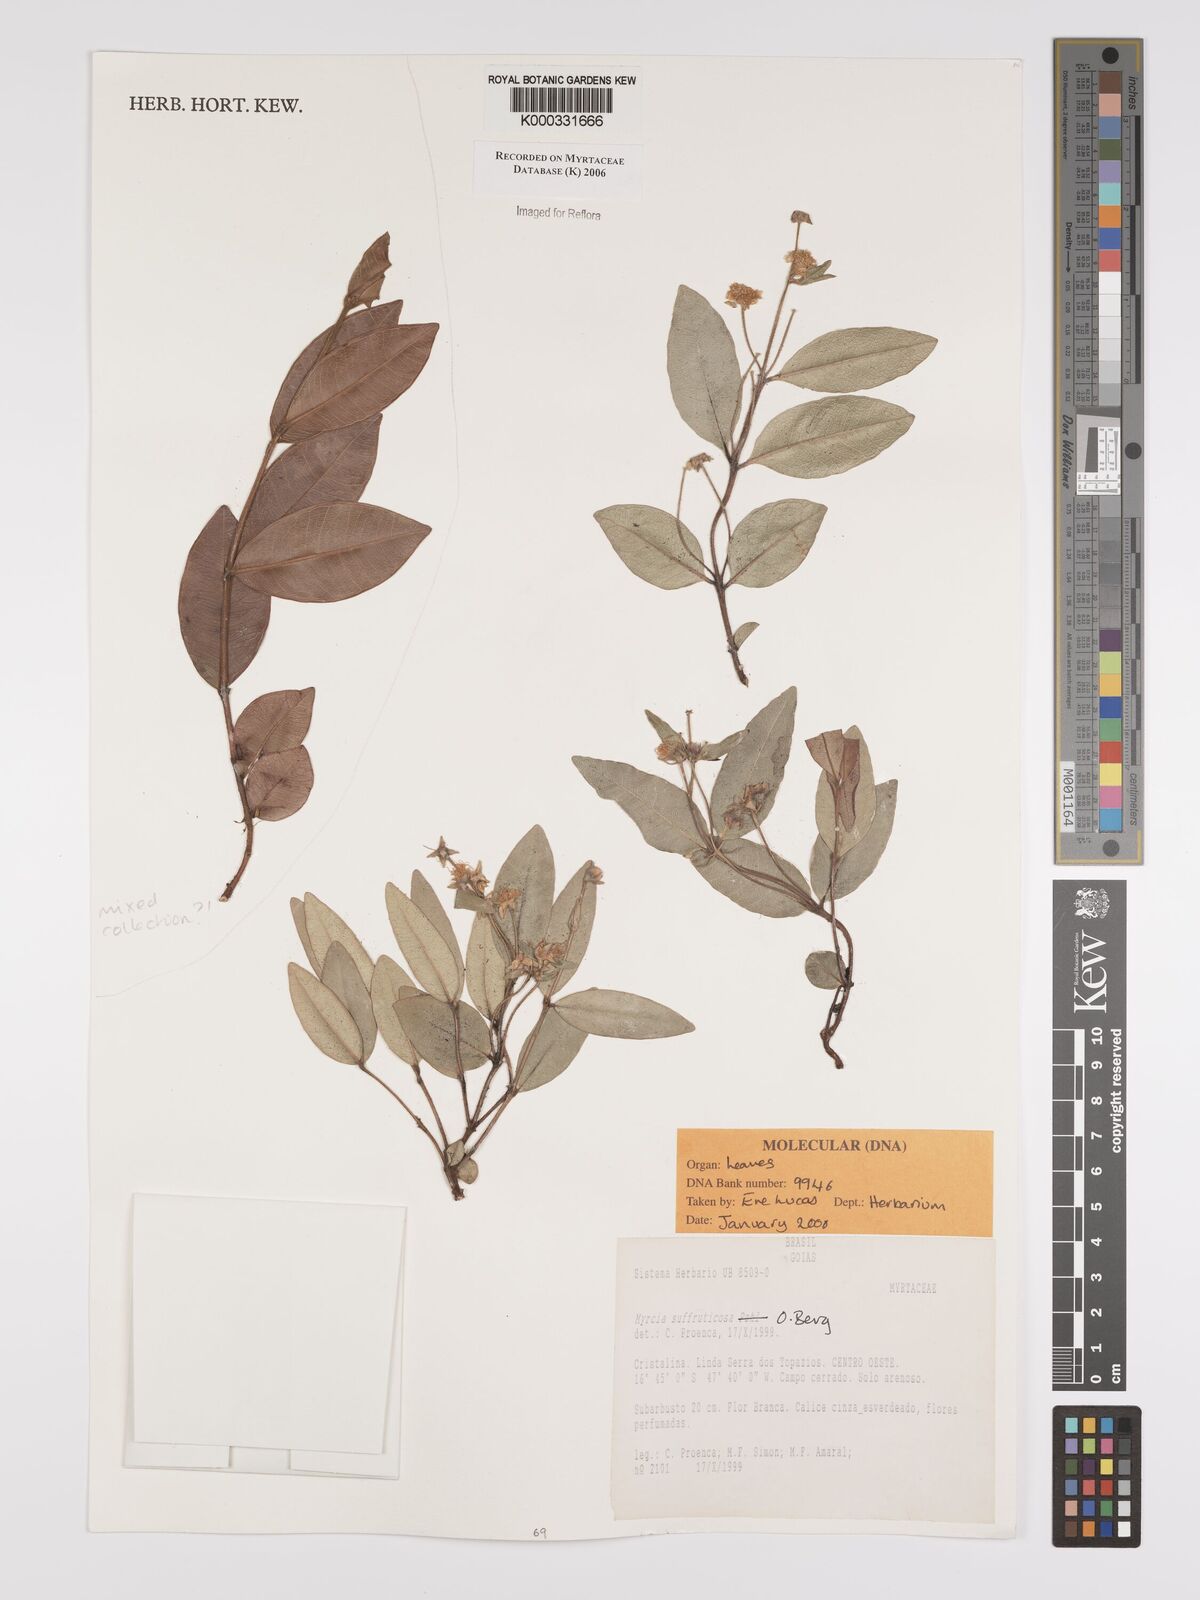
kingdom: Plantae
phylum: Tracheophyta
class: Magnoliopsida
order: Myrtales
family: Myrtaceae
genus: Myrcia
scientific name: Myrcia suffruticosa
